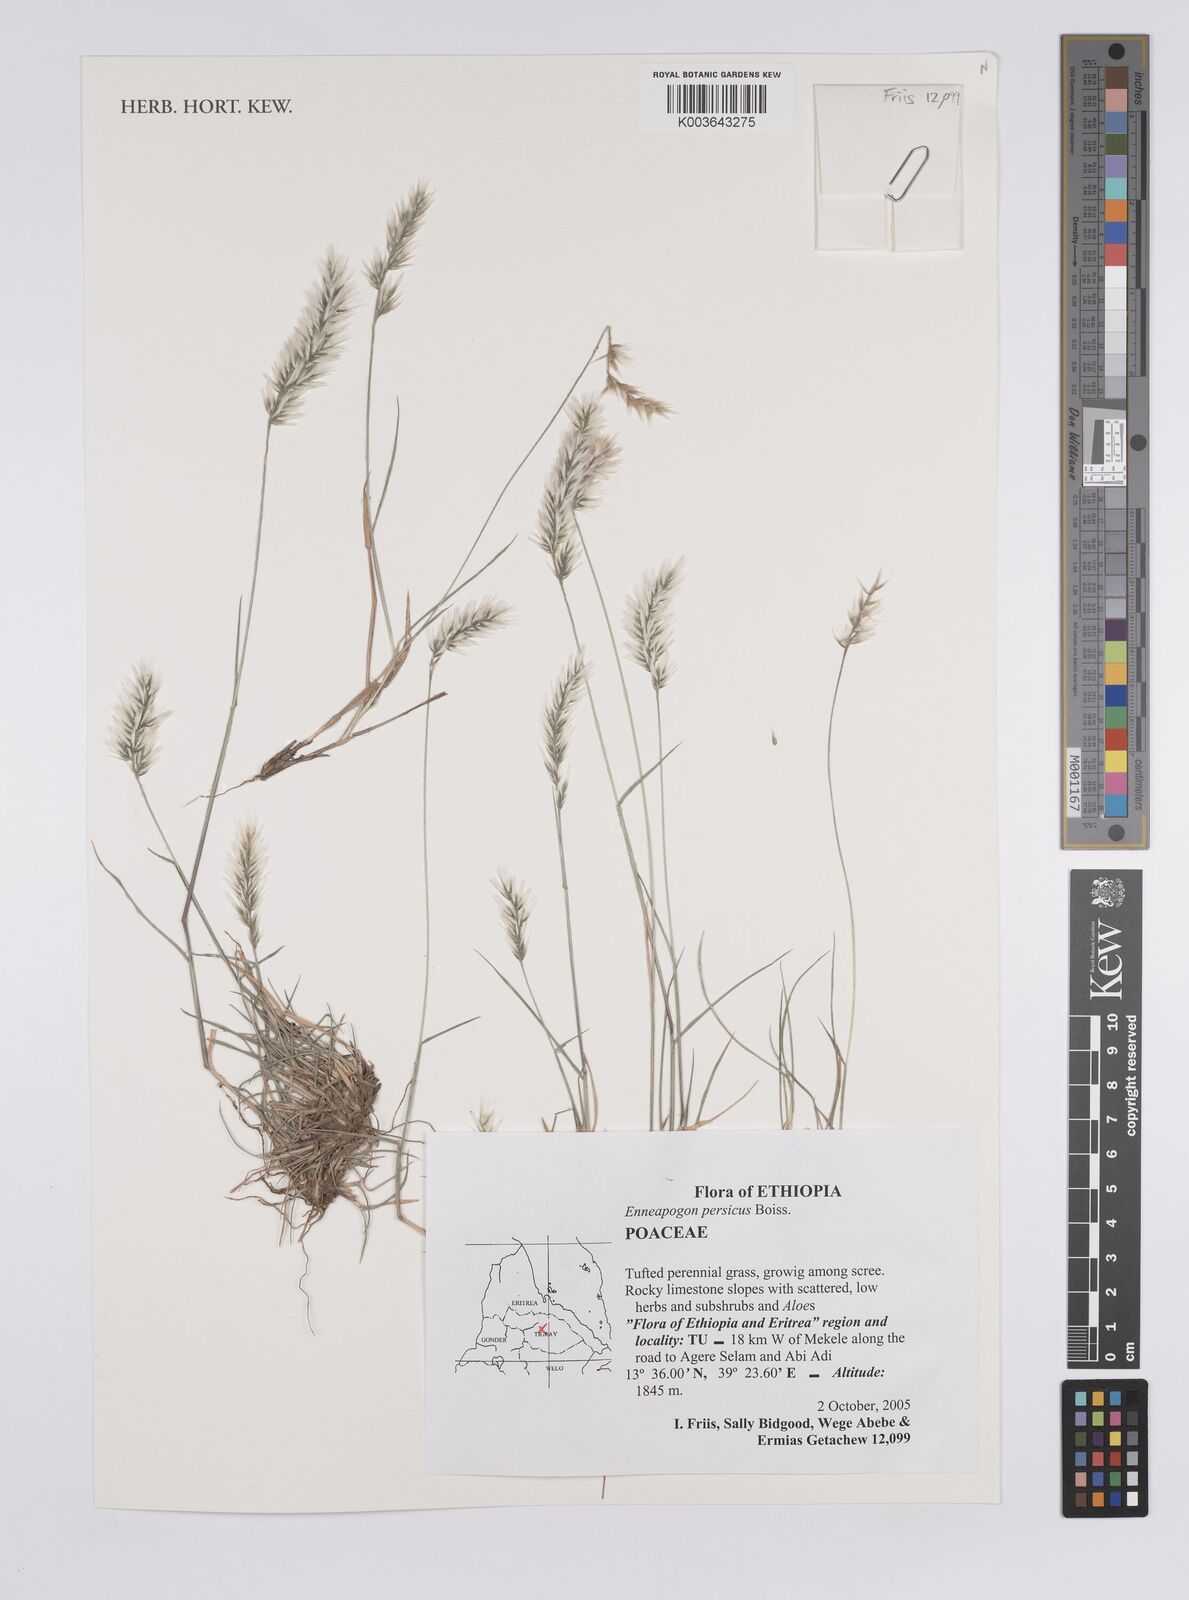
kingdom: Plantae
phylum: Tracheophyta
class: Liliopsida
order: Poales
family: Poaceae
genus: Enneapogon
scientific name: Enneapogon persicus
